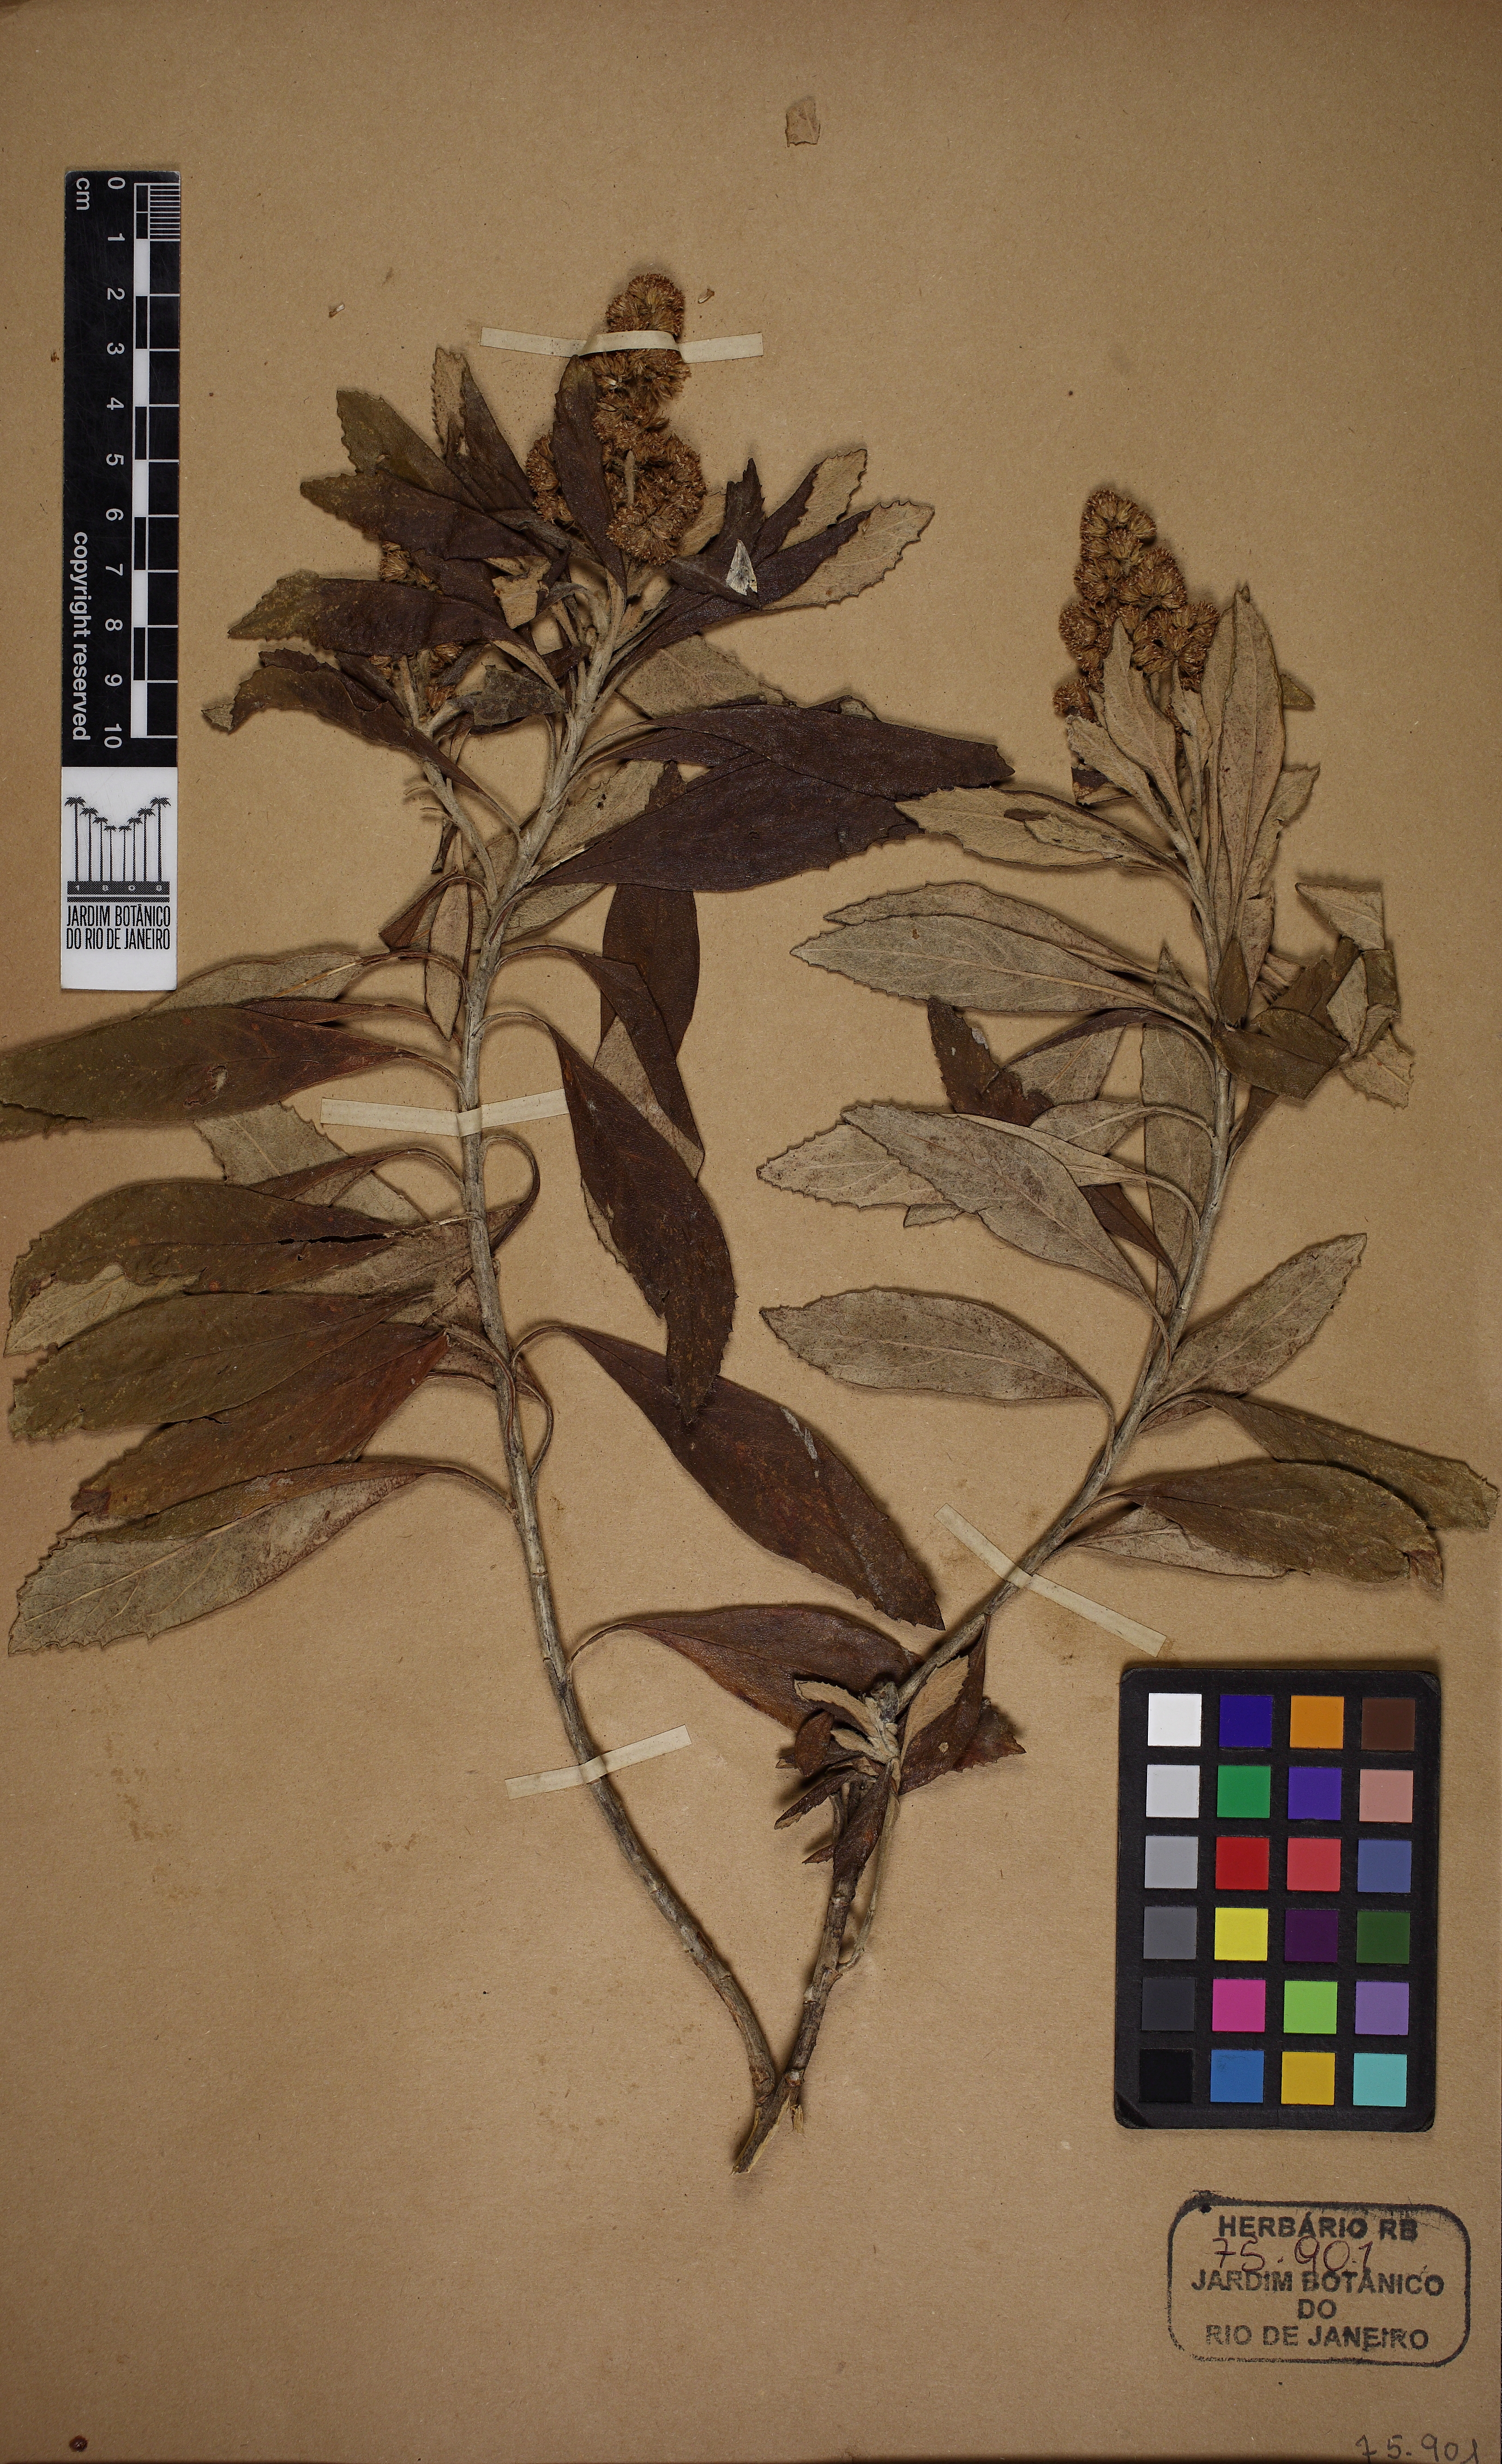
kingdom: Plantae
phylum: Tracheophyta
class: Magnoliopsida
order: Asterales
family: Asteraceae
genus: Baccharis
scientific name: Baccharis tarchonanthoides
